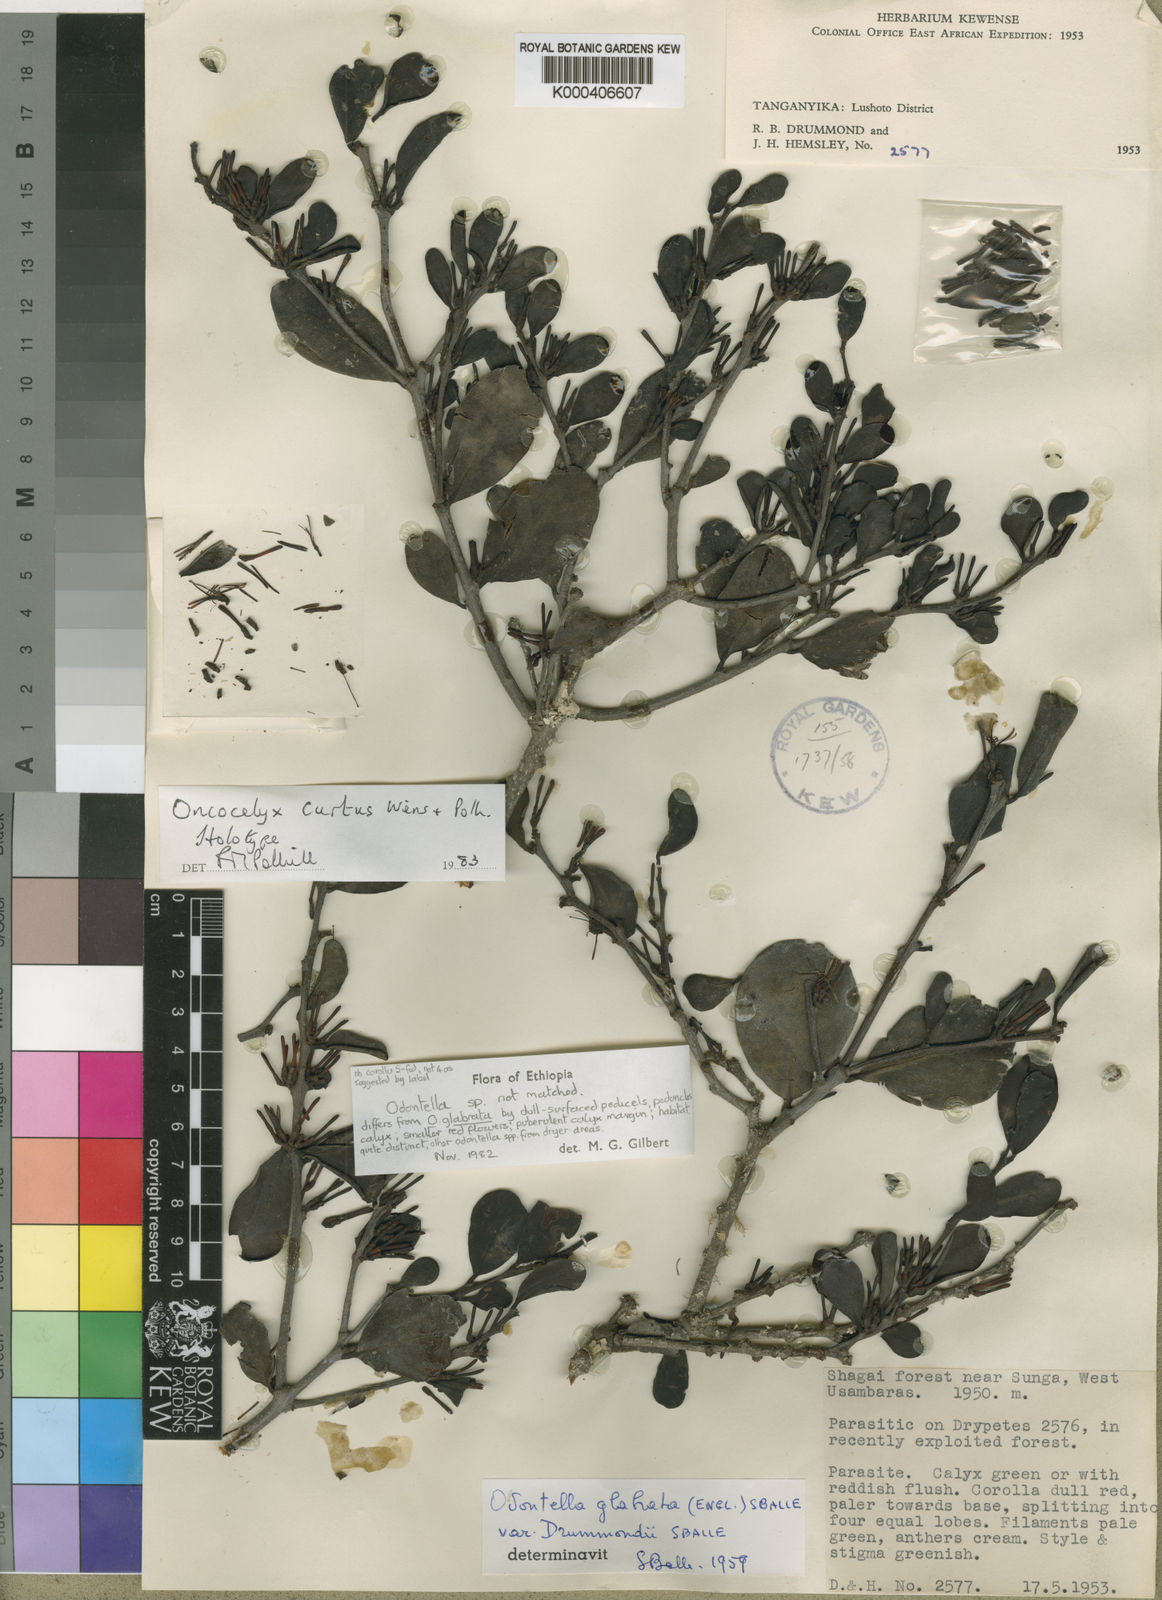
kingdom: Plantae
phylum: Tracheophyta
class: Magnoliopsida
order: Santalales
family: Loranthaceae
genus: Spragueanella
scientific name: Spragueanella curta
